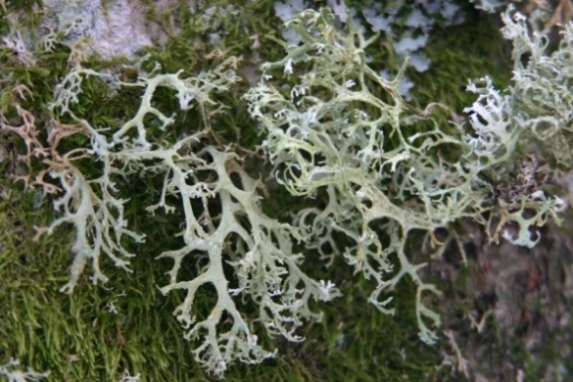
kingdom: Fungi
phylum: Ascomycota
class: Lecanoromycetes
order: Lecanorales
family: Parmeliaceae
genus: Evernia
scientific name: Evernia prunastri
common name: almindelig slåenlav
